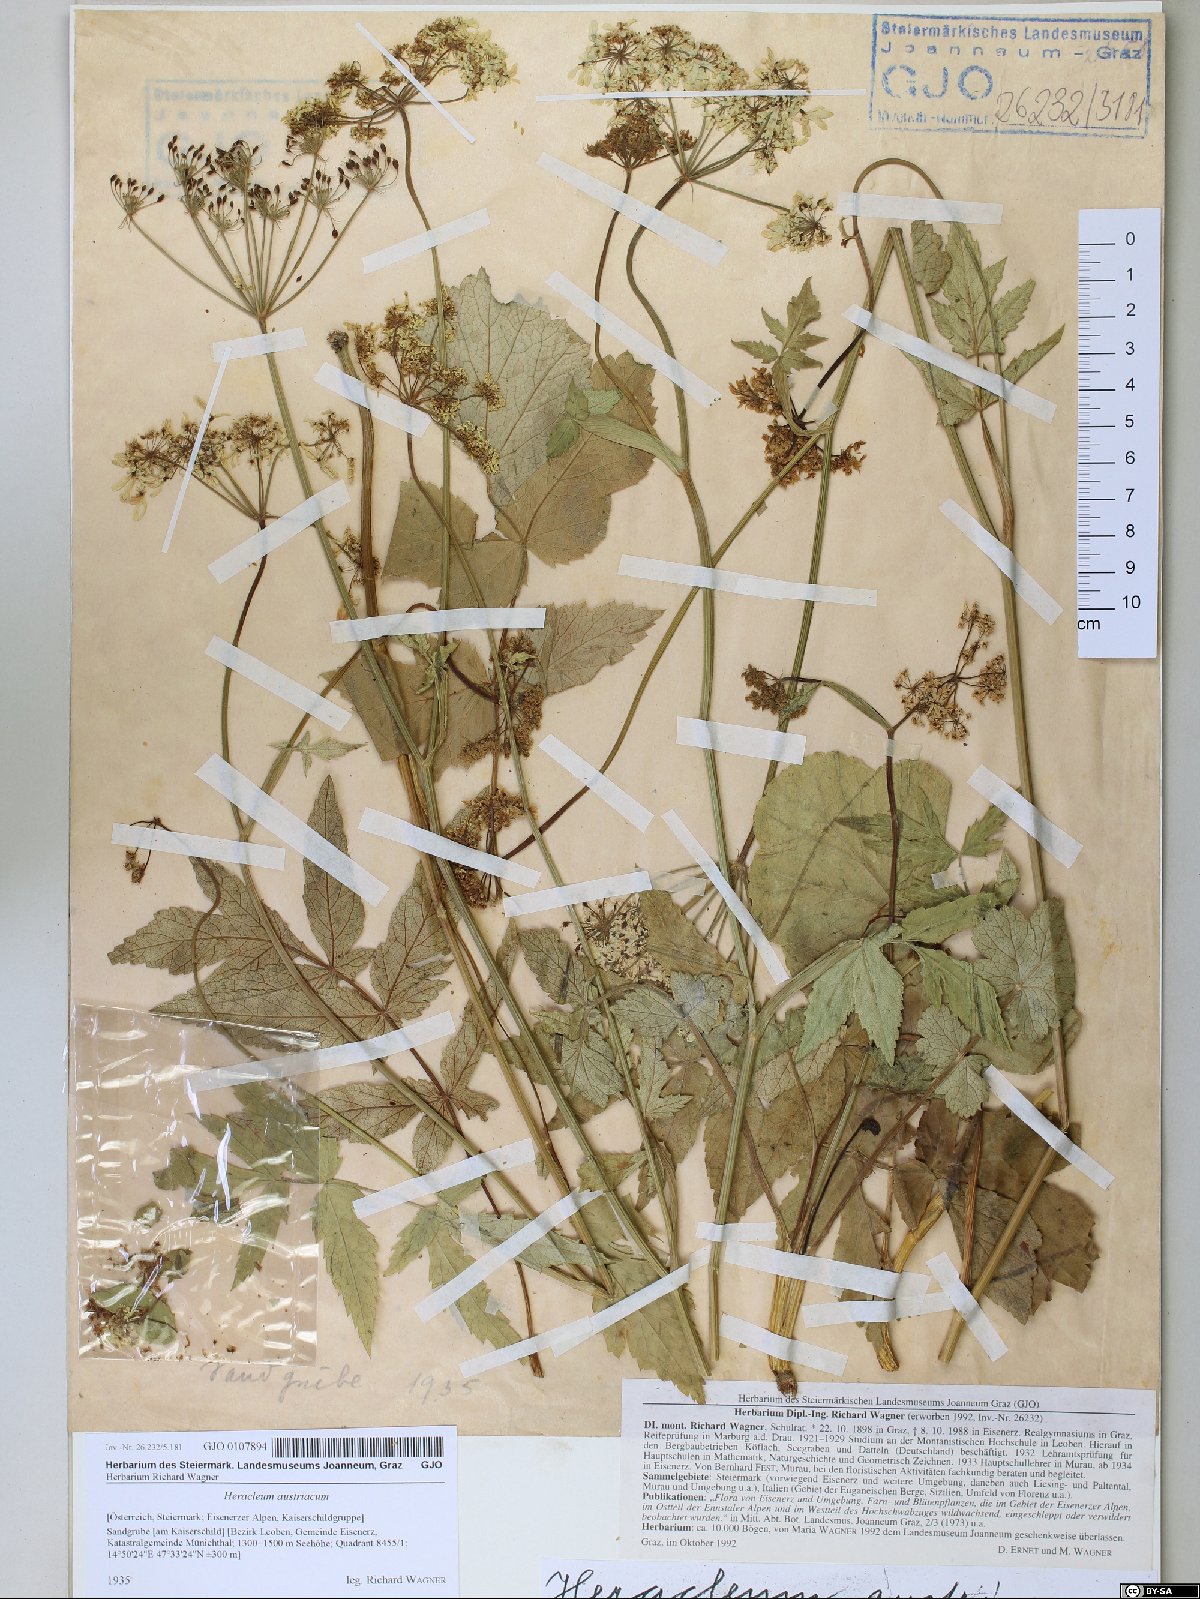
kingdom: Plantae
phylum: Tracheophyta
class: Magnoliopsida
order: Apiales
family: Apiaceae
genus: Heracleum
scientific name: Heracleum austriacum
